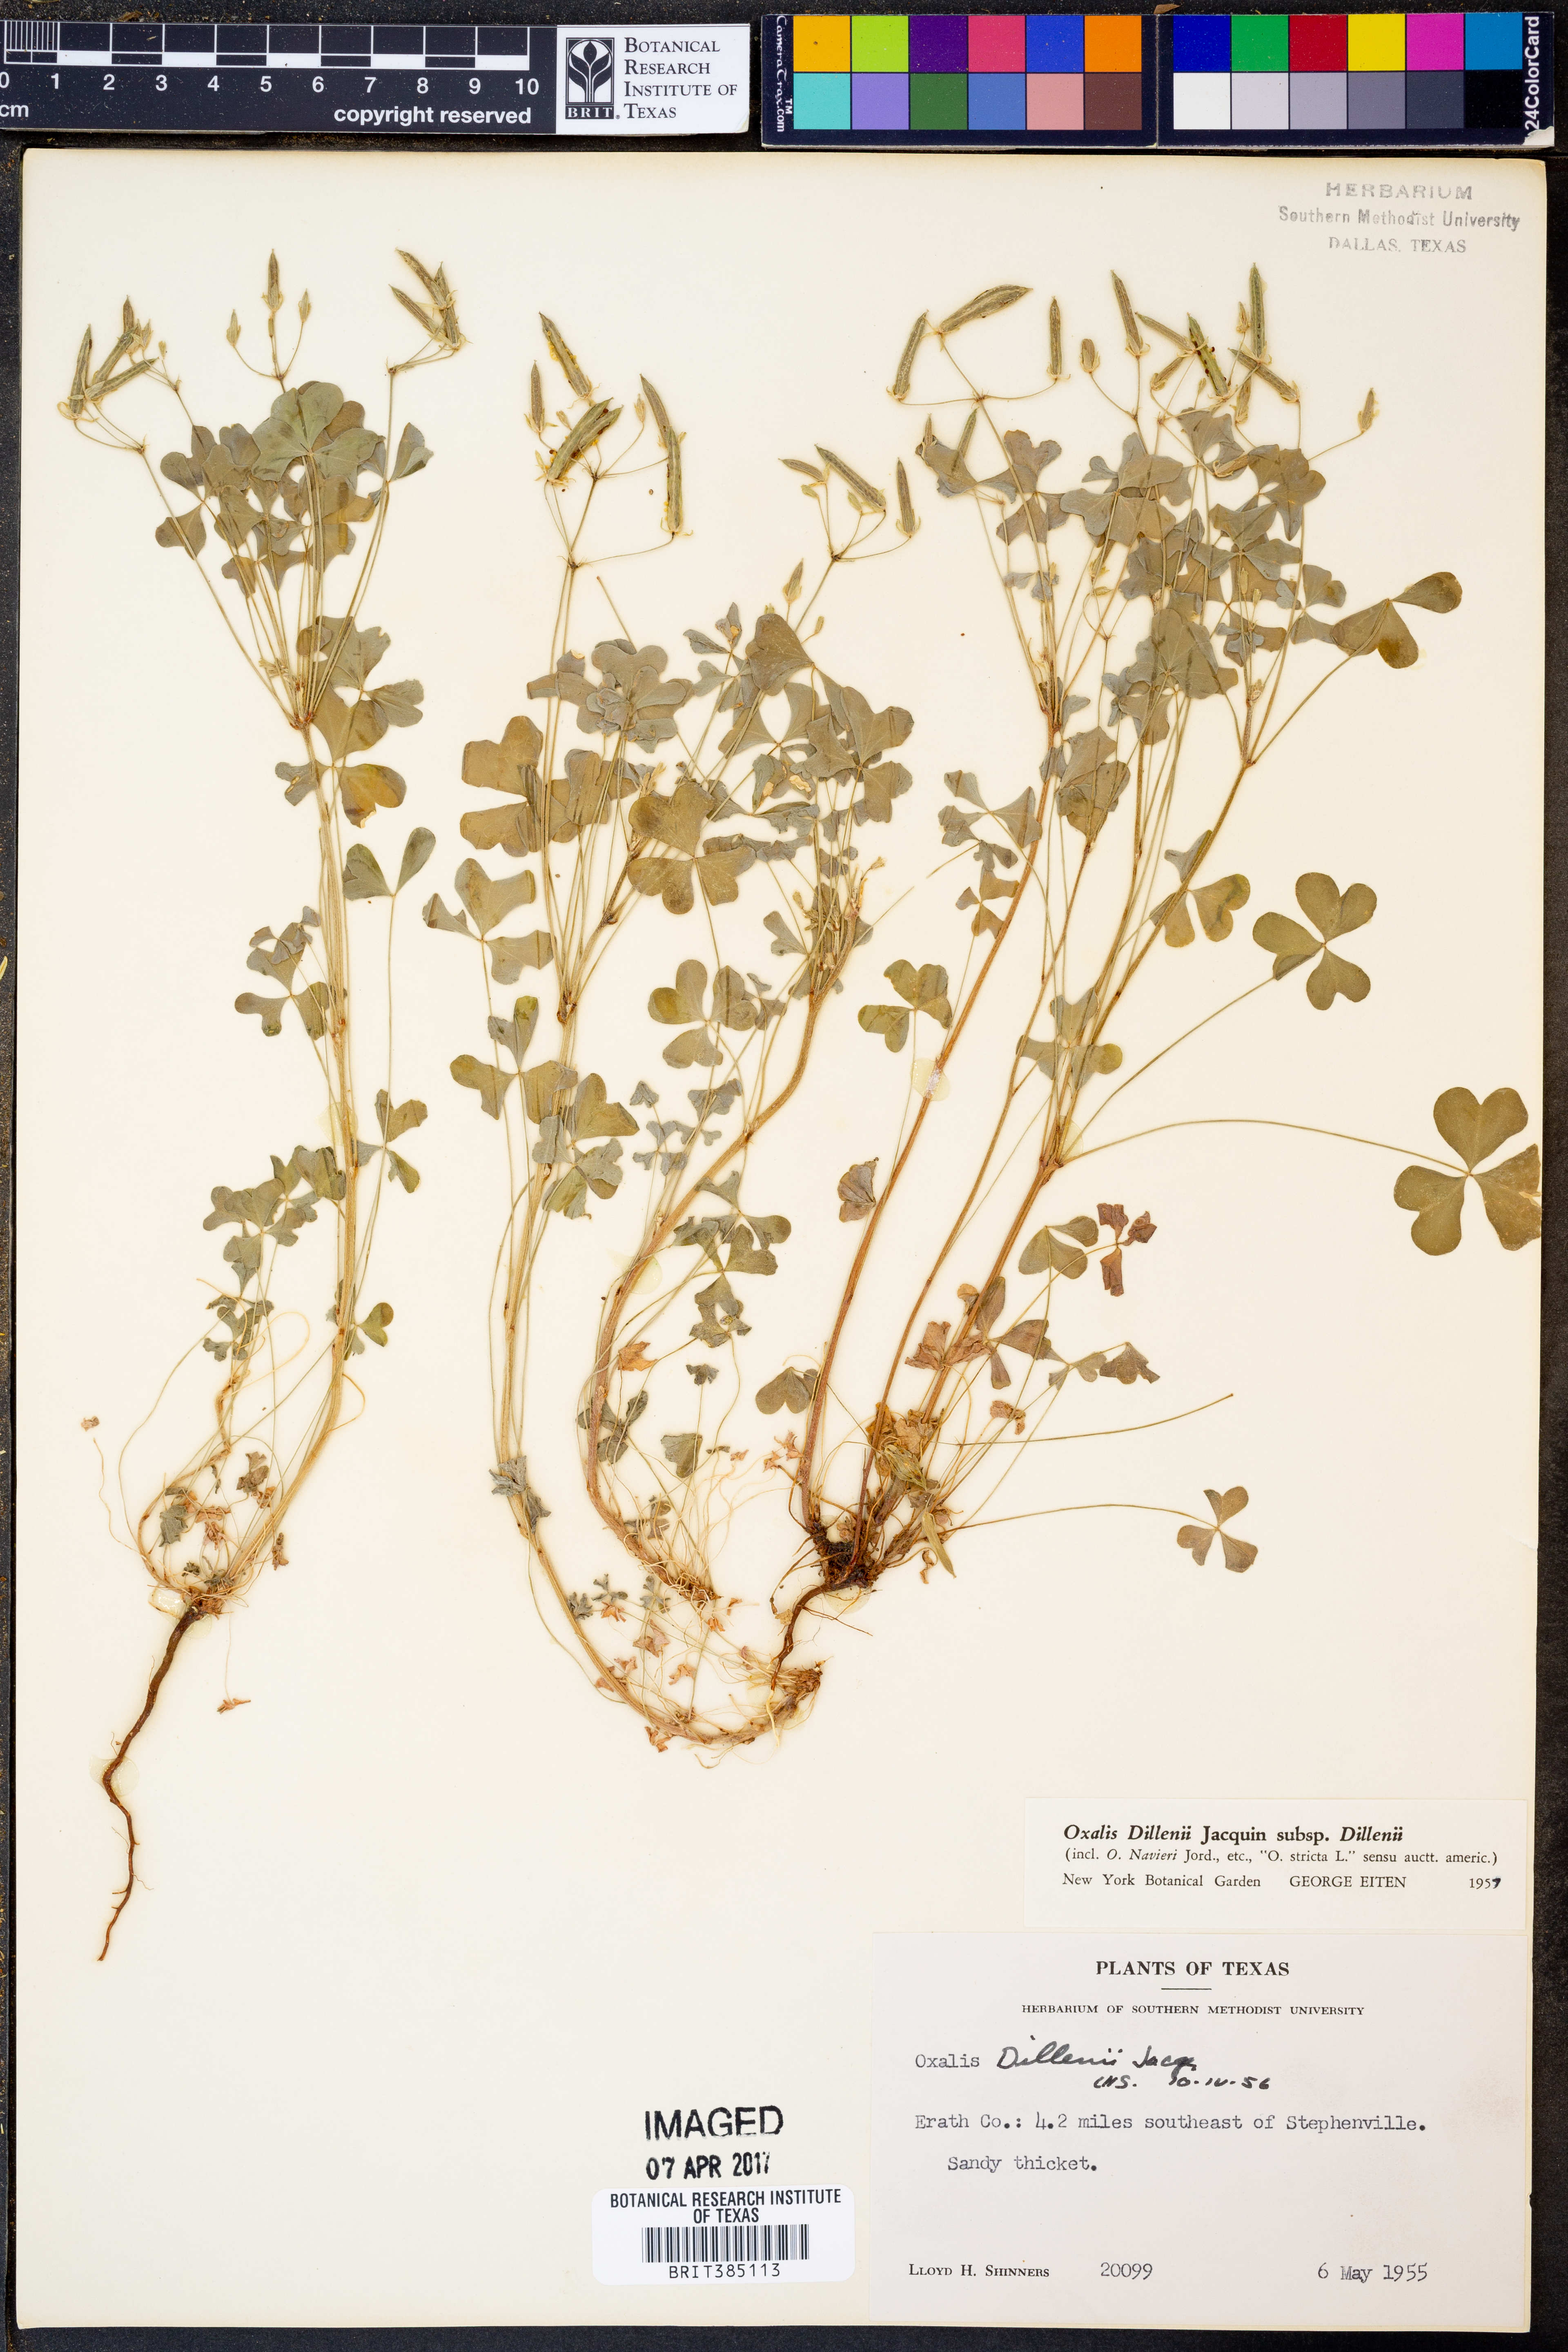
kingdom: Plantae
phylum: Tracheophyta
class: Magnoliopsida
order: Oxalidales
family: Oxalidaceae
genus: Oxalis
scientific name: Oxalis dillenii
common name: Sussex yellow-sorrel
